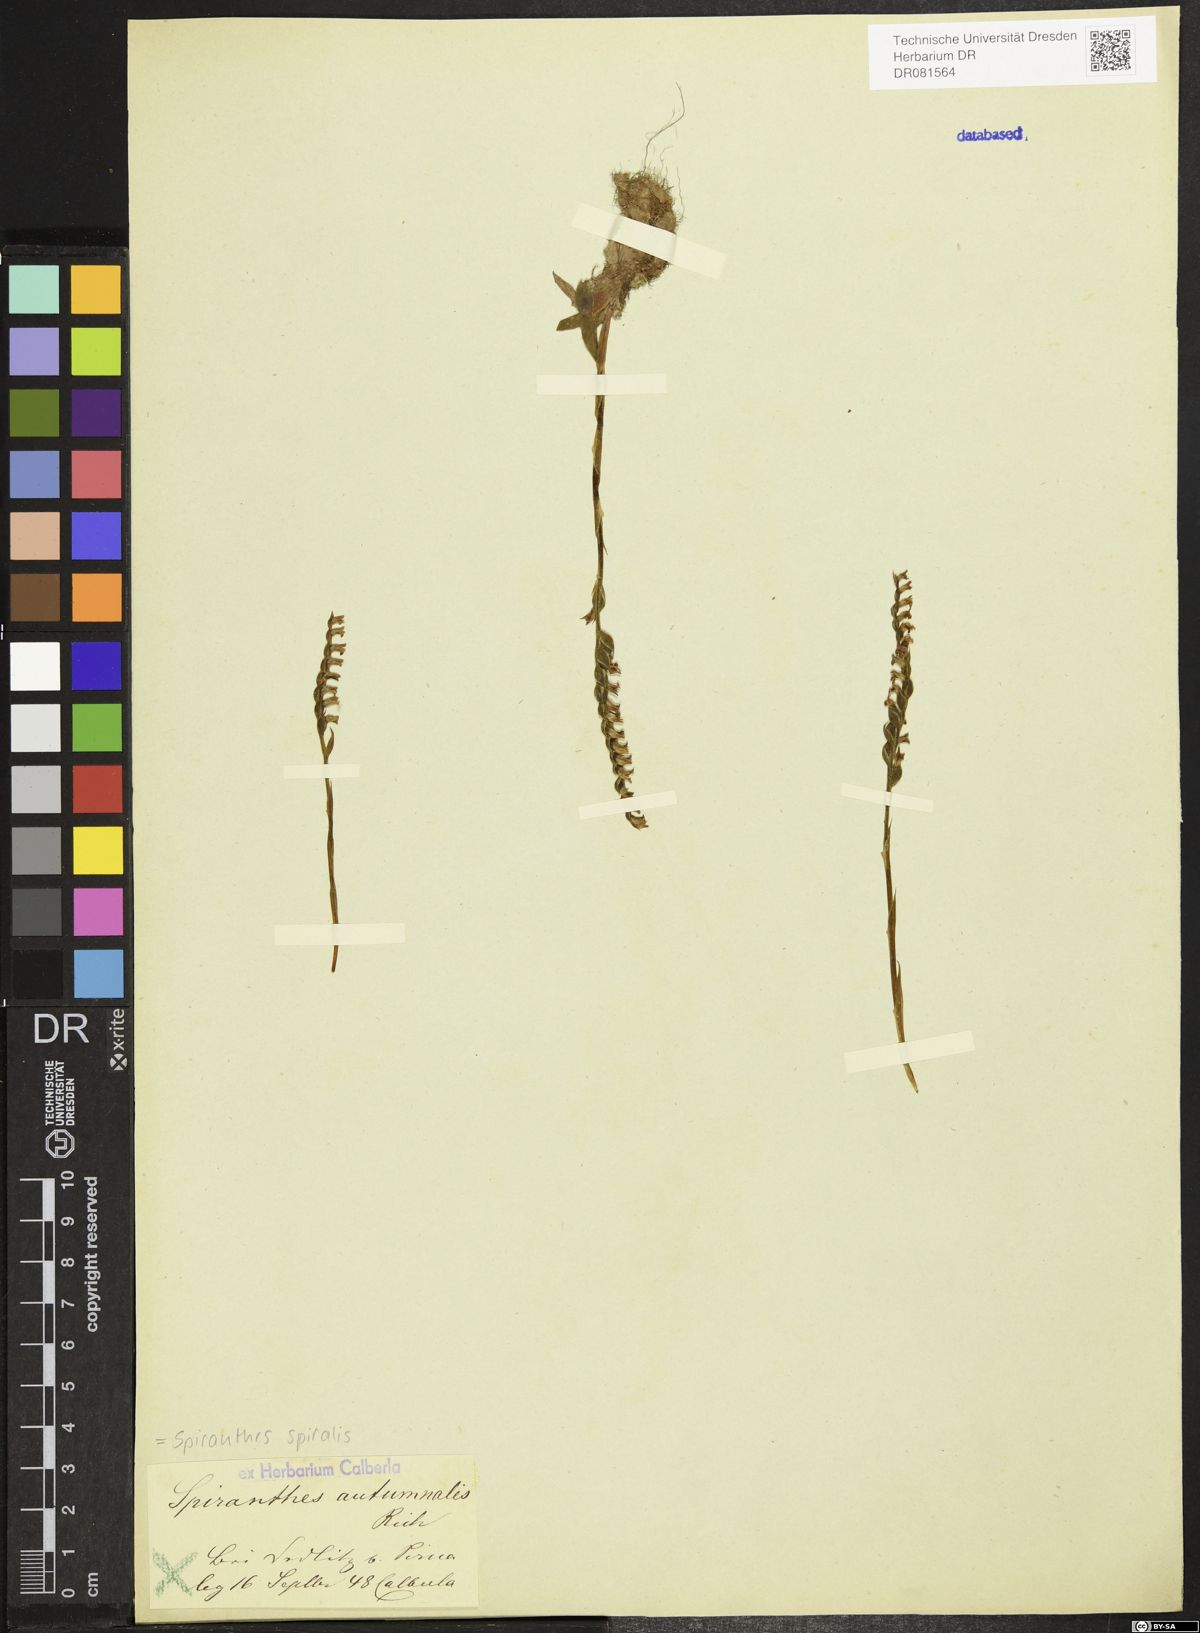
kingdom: Plantae
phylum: Tracheophyta
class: Liliopsida
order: Asparagales
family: Orchidaceae
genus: Spiranthes
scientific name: Spiranthes spiralis
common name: Autumn lady's-tresses
